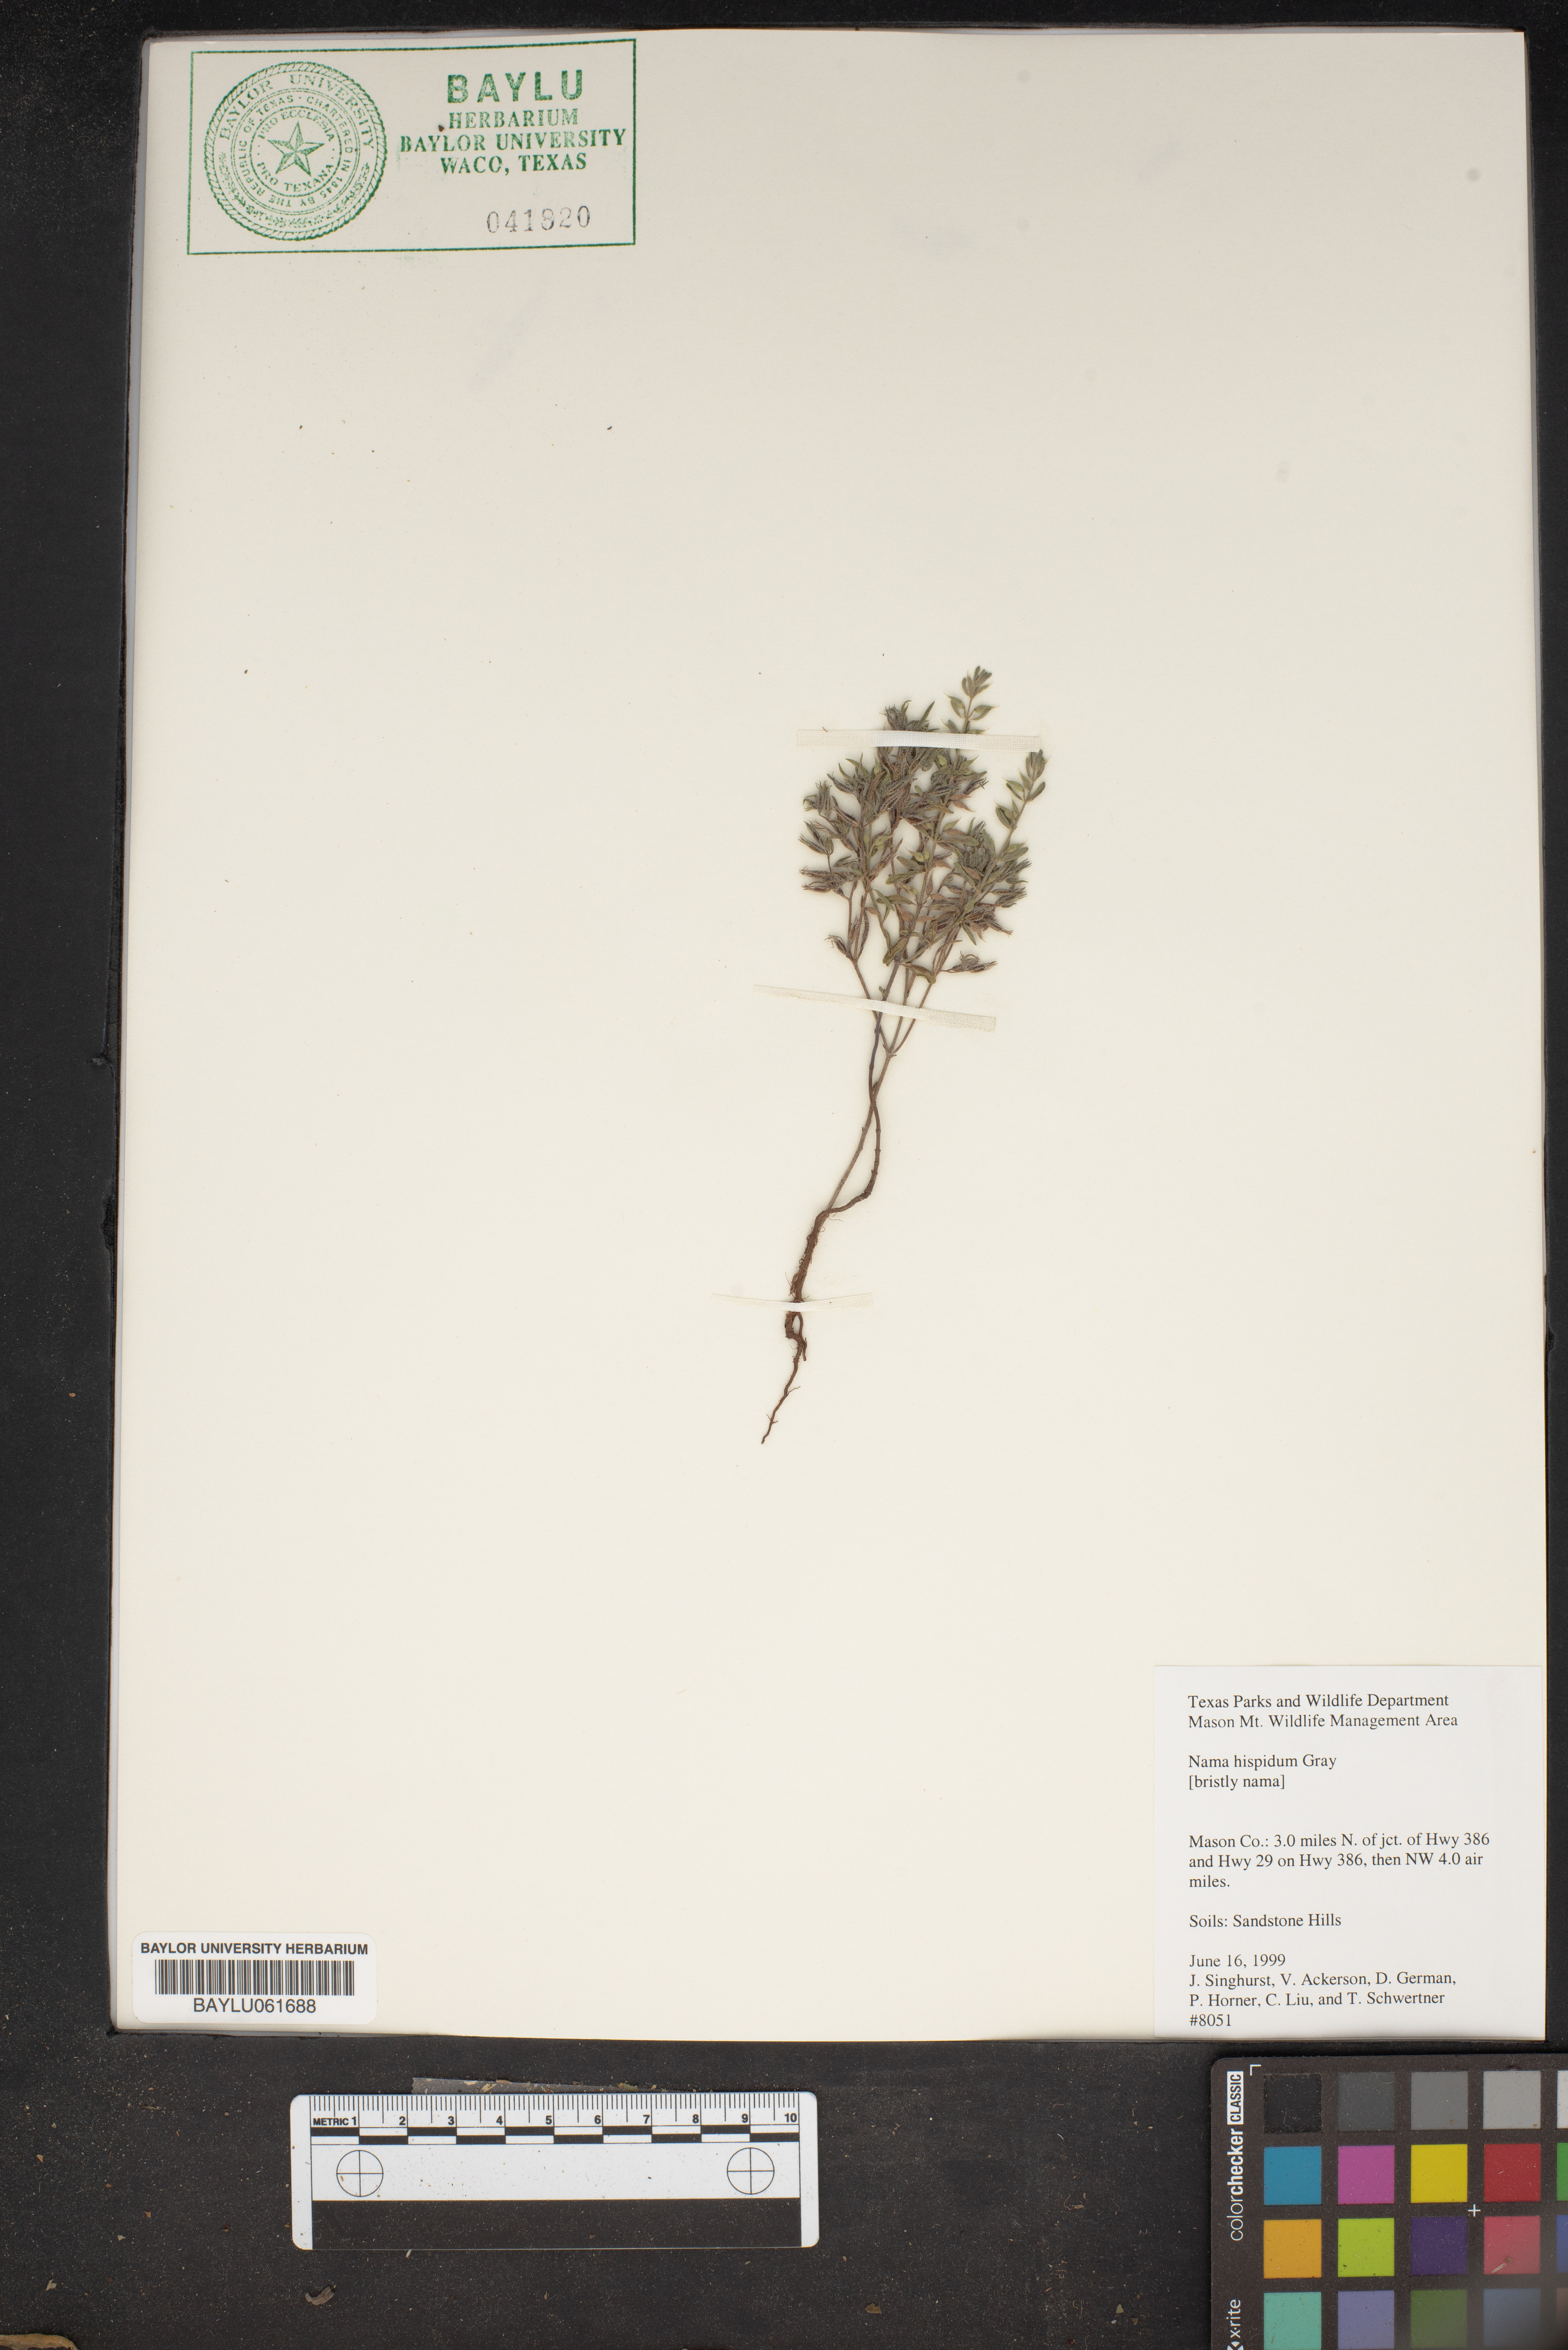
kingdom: Plantae
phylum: Tracheophyta
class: Magnoliopsida
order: Boraginales
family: Namaceae
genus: Nama
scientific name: Nama hispida
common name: Bristly nama
